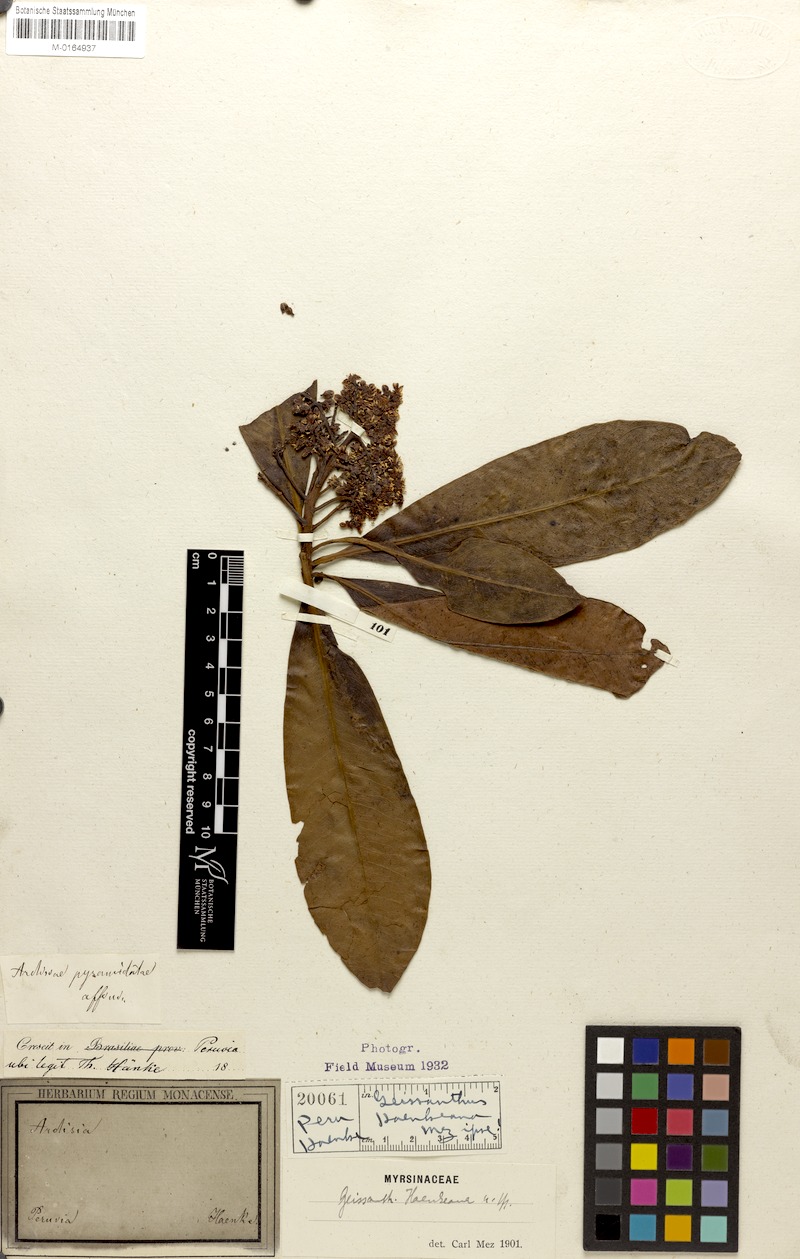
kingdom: Plantae
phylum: Tracheophyta
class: Magnoliopsida
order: Ericales
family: Primulaceae
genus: Geissanthus
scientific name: Geissanthus boliviana
